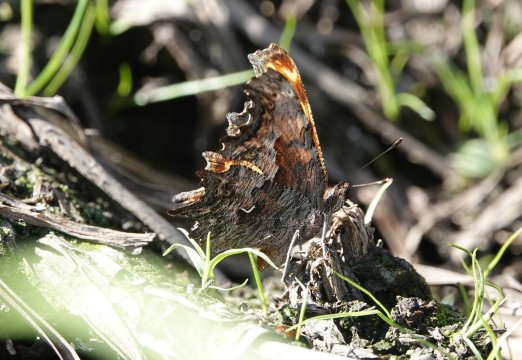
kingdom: Animalia
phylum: Arthropoda
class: Insecta
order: Lepidoptera
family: Nymphalidae
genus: Polygonia
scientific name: Polygonia gracilis
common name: Hoary Comma
